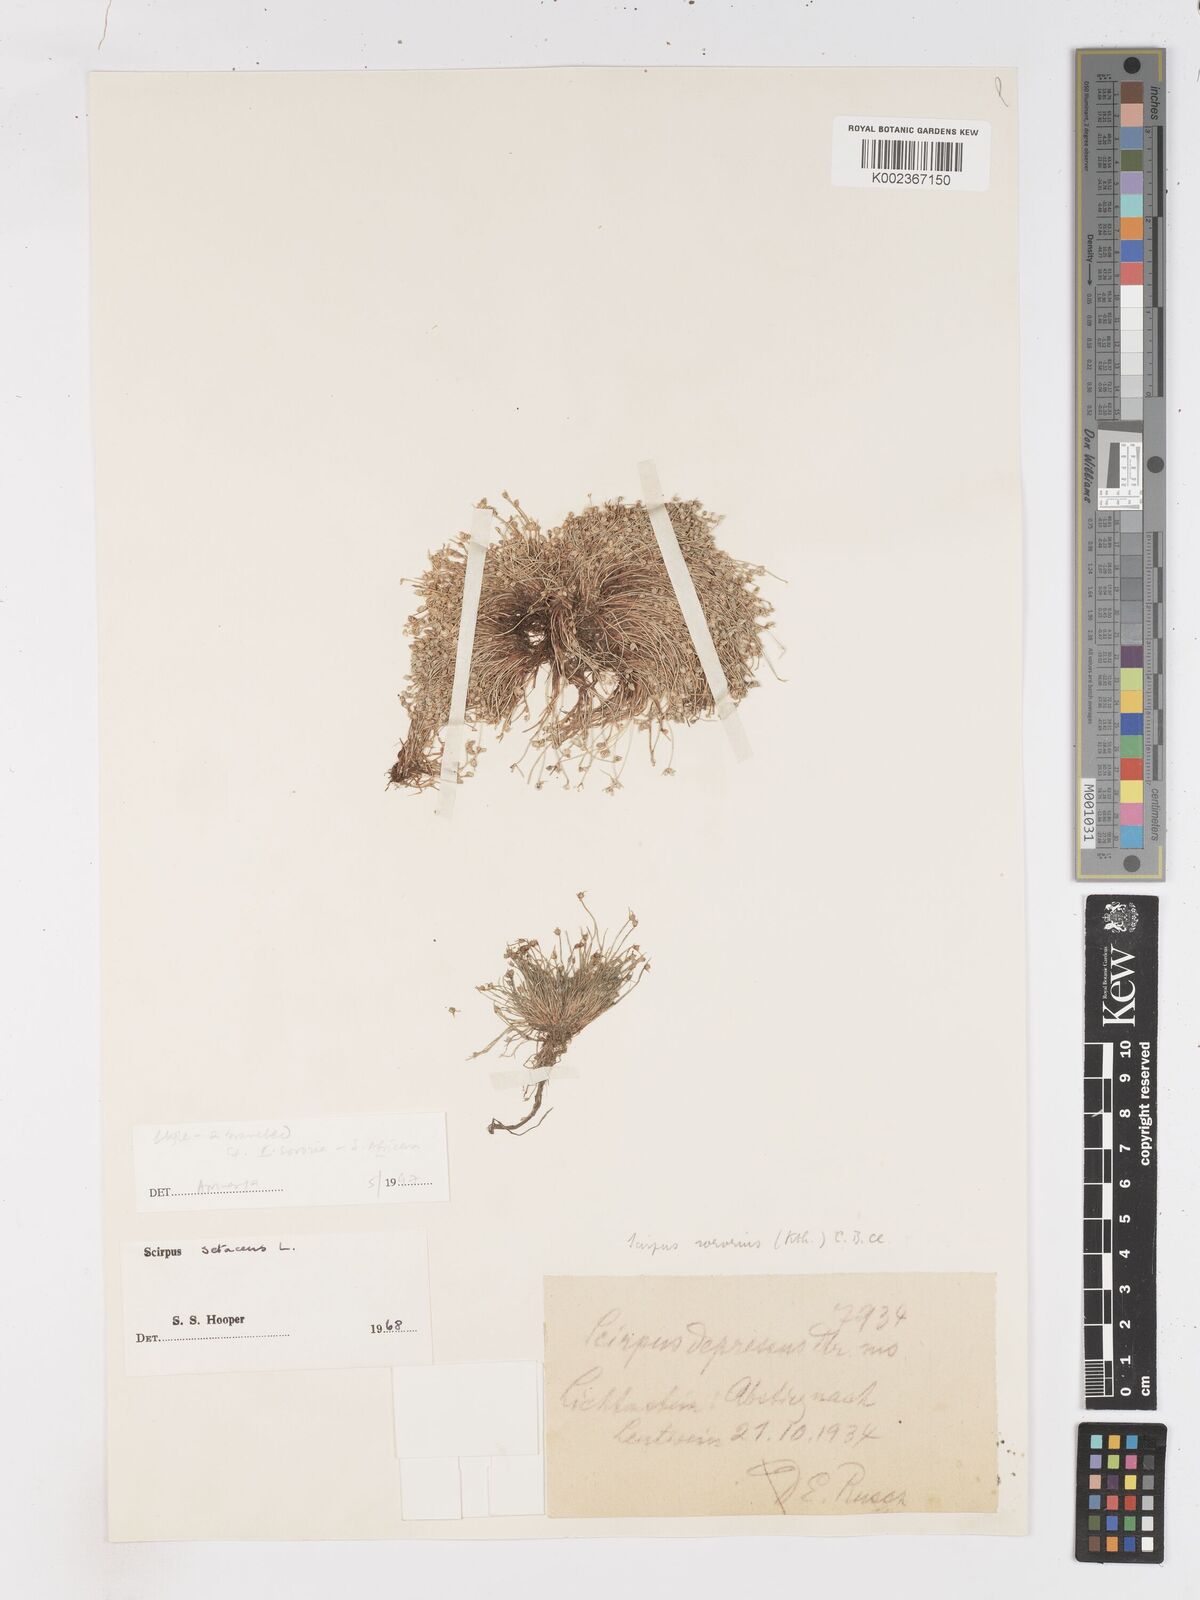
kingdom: Plantae
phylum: Tracheophyta
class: Liliopsida
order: Poales
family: Cyperaceae
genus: Isolepis
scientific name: Isolepis setacea
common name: Bristle club-rush
